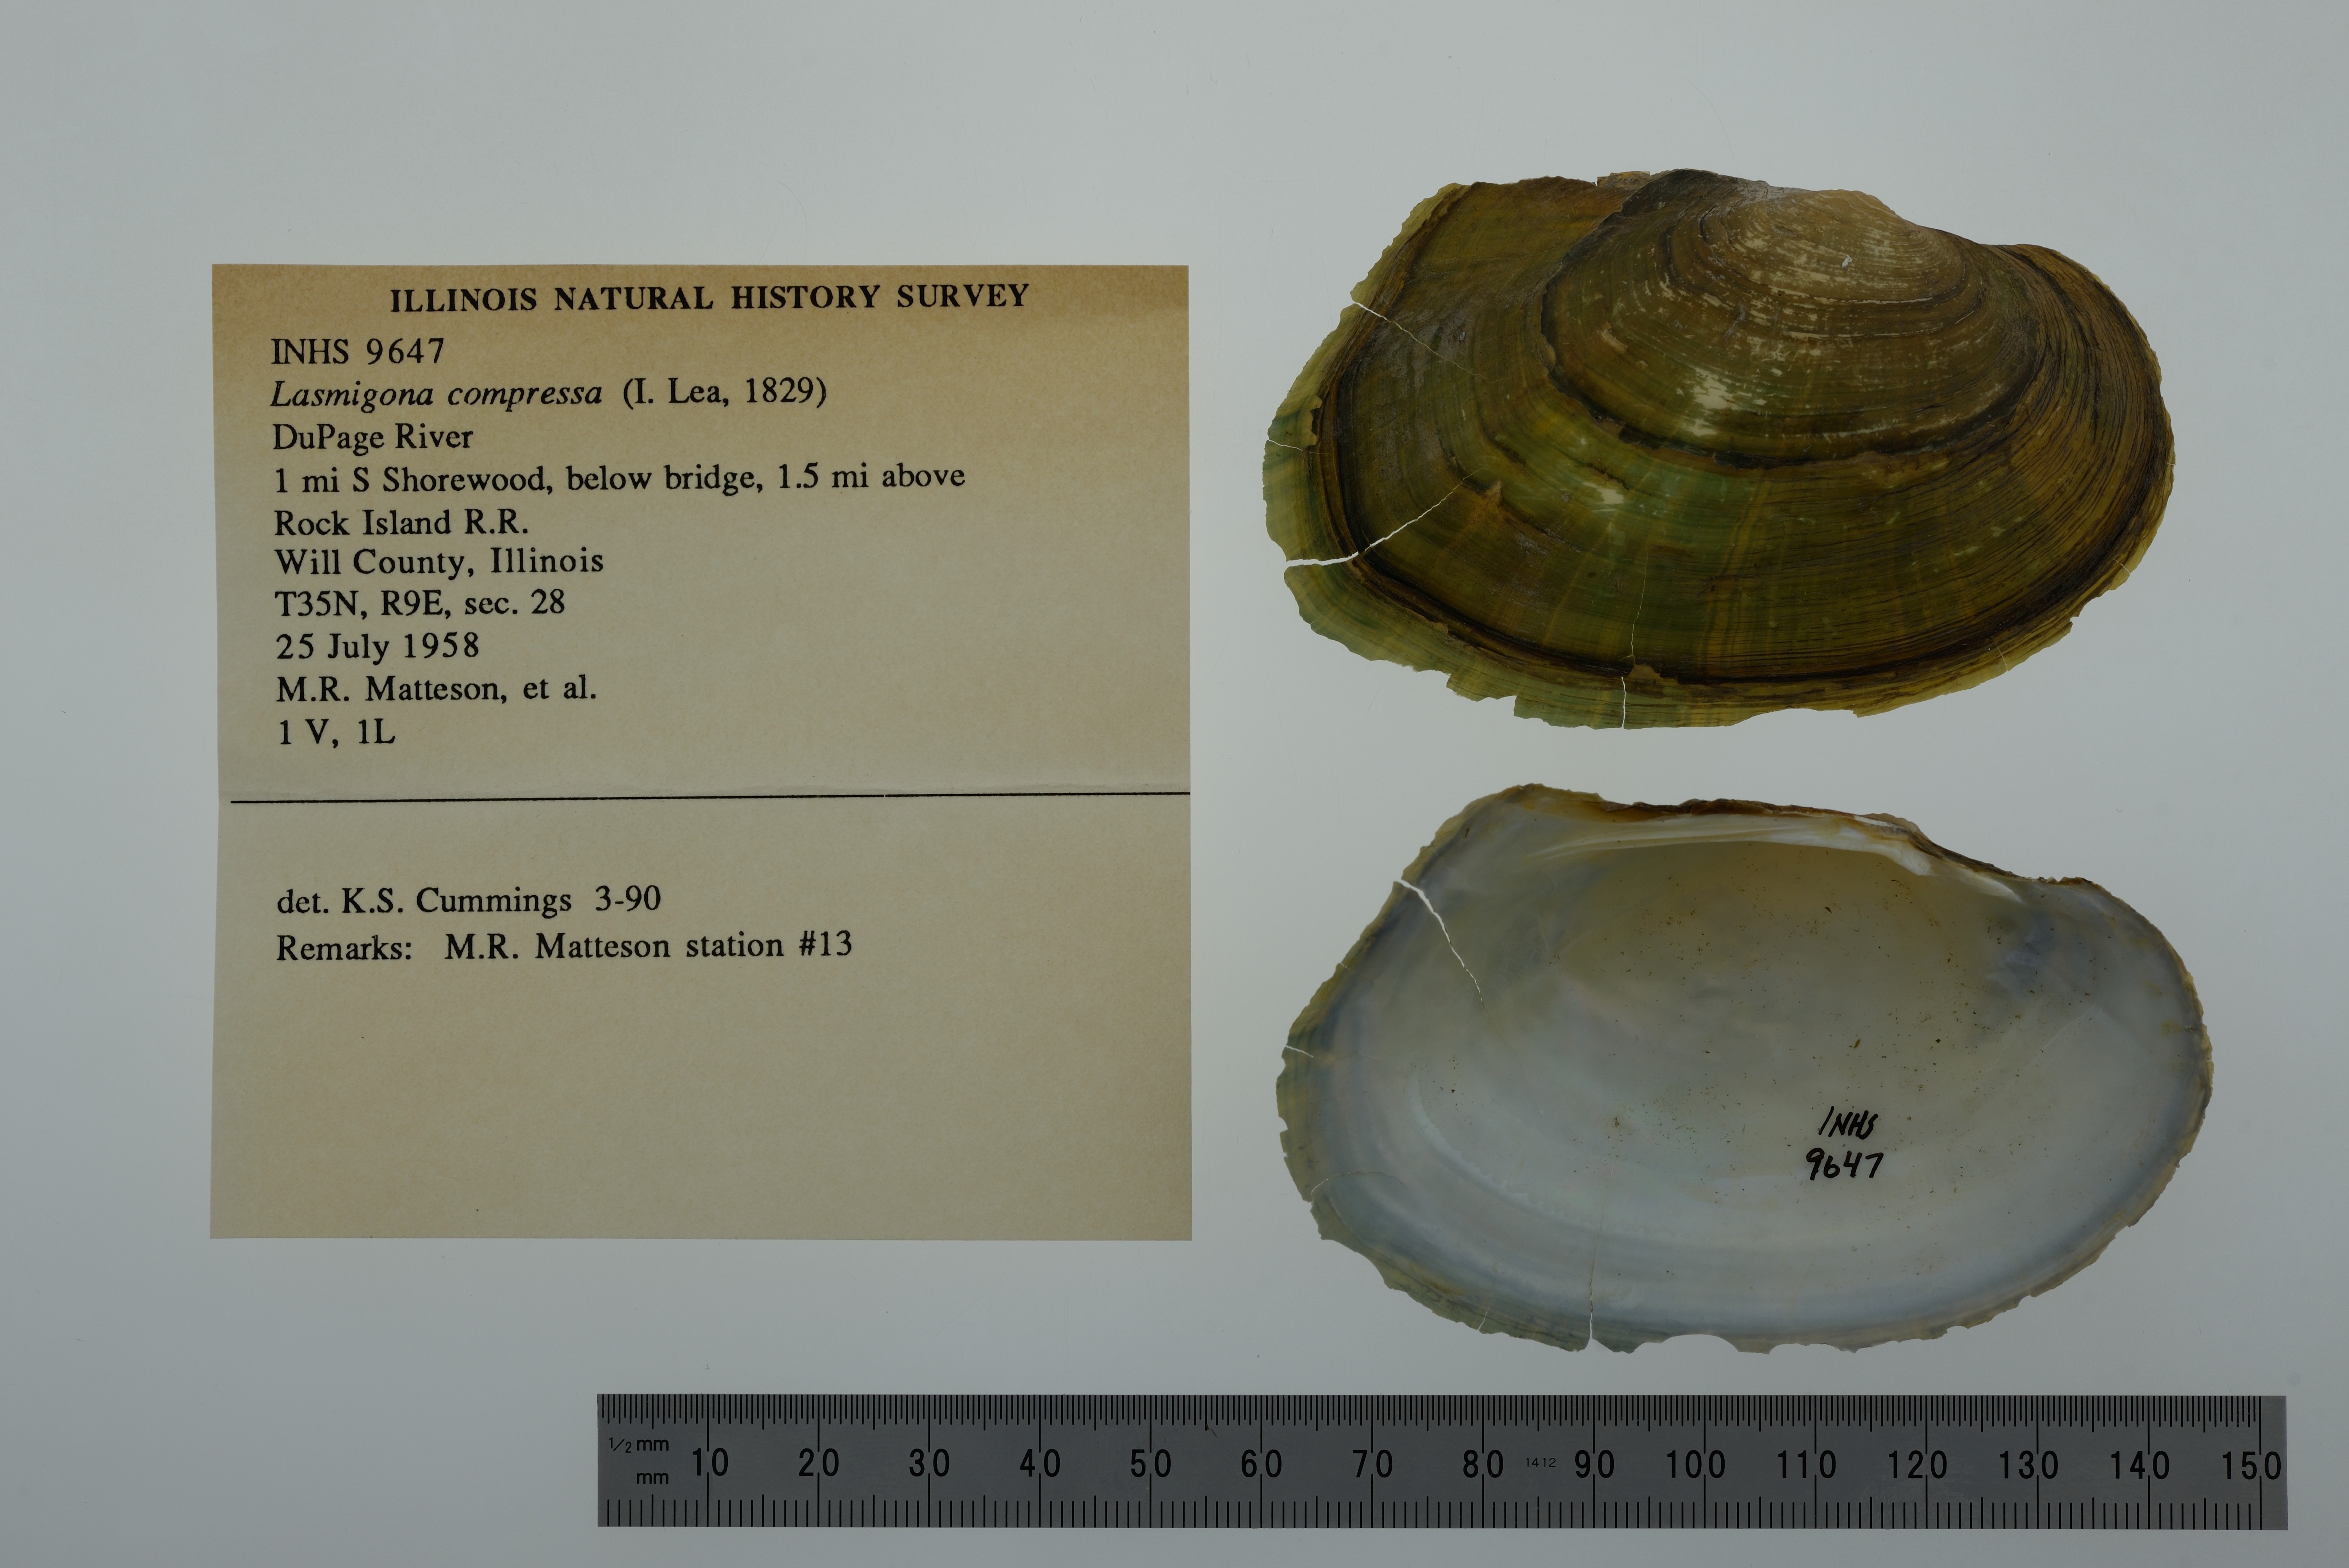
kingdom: Animalia
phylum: Mollusca
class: Bivalvia
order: Unionida
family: Unionidae
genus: Lasmigona
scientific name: Lasmigona compressa
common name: Creek heelsplitter
